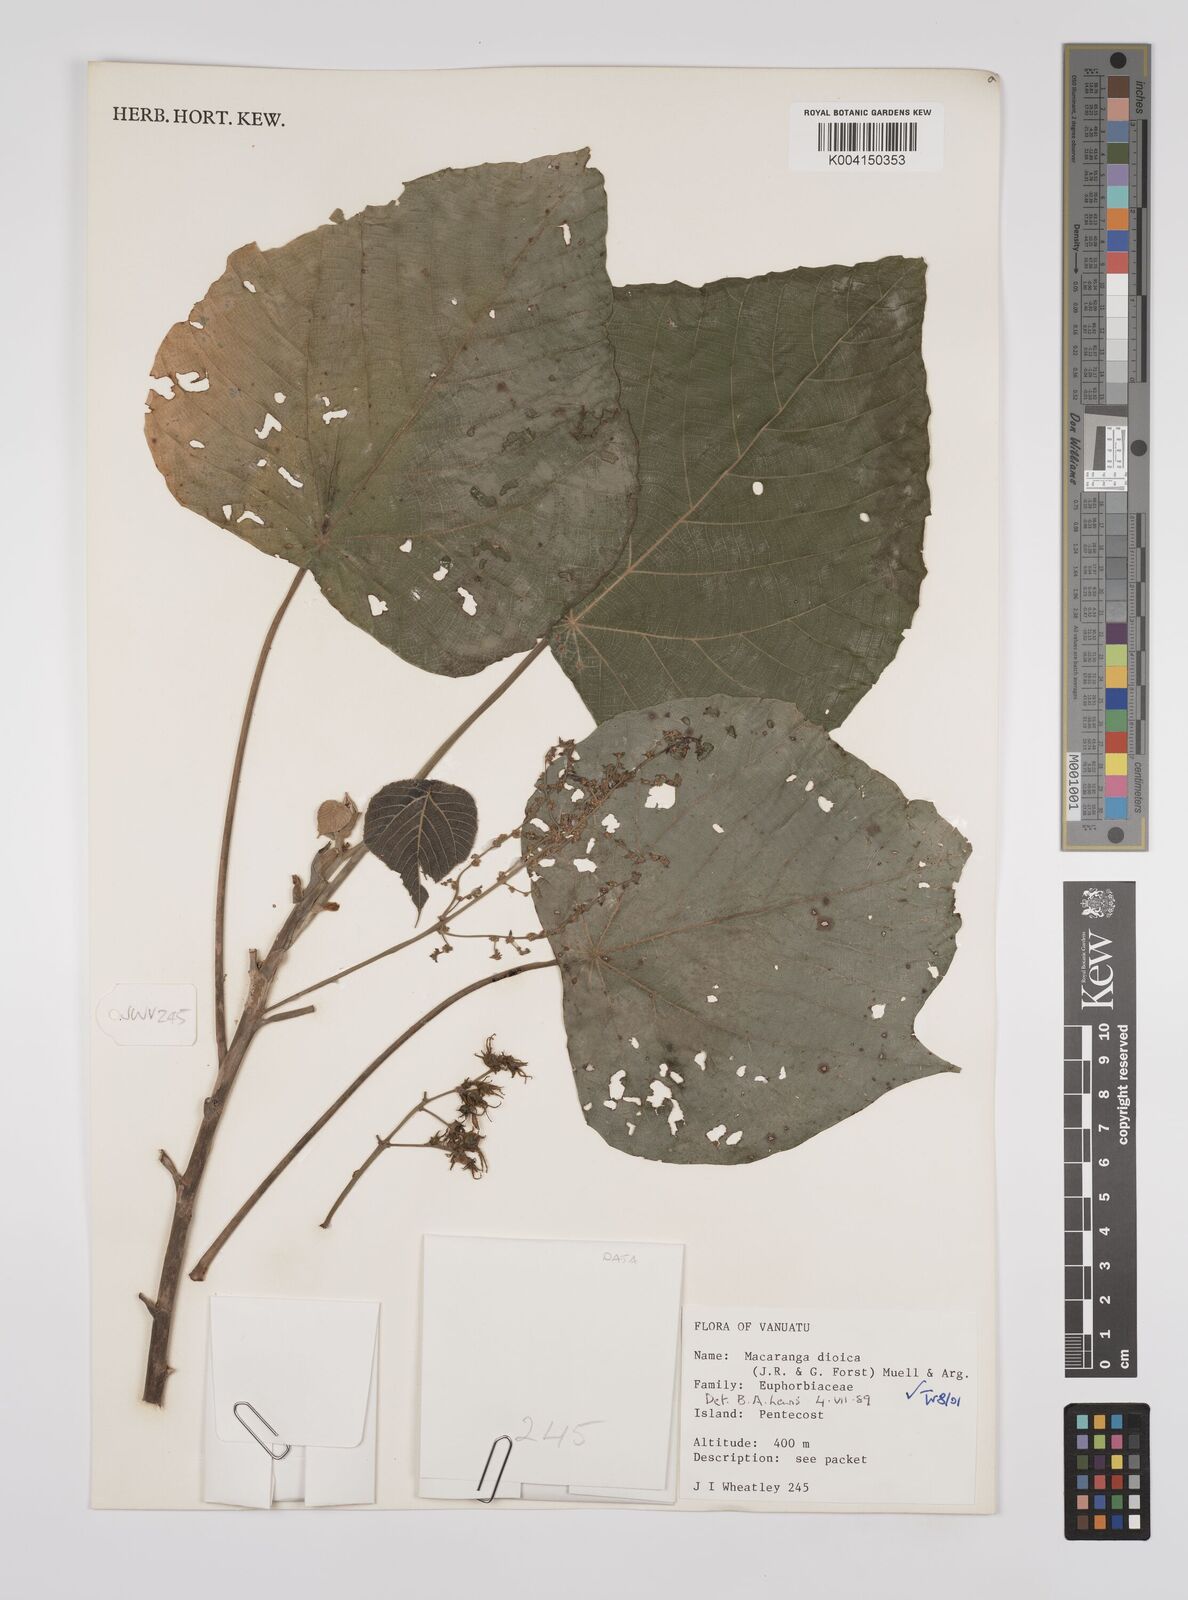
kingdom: Plantae
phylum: Tracheophyta
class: Magnoliopsida
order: Malpighiales
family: Euphorbiaceae
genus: Macaranga
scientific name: Macaranga dioica
